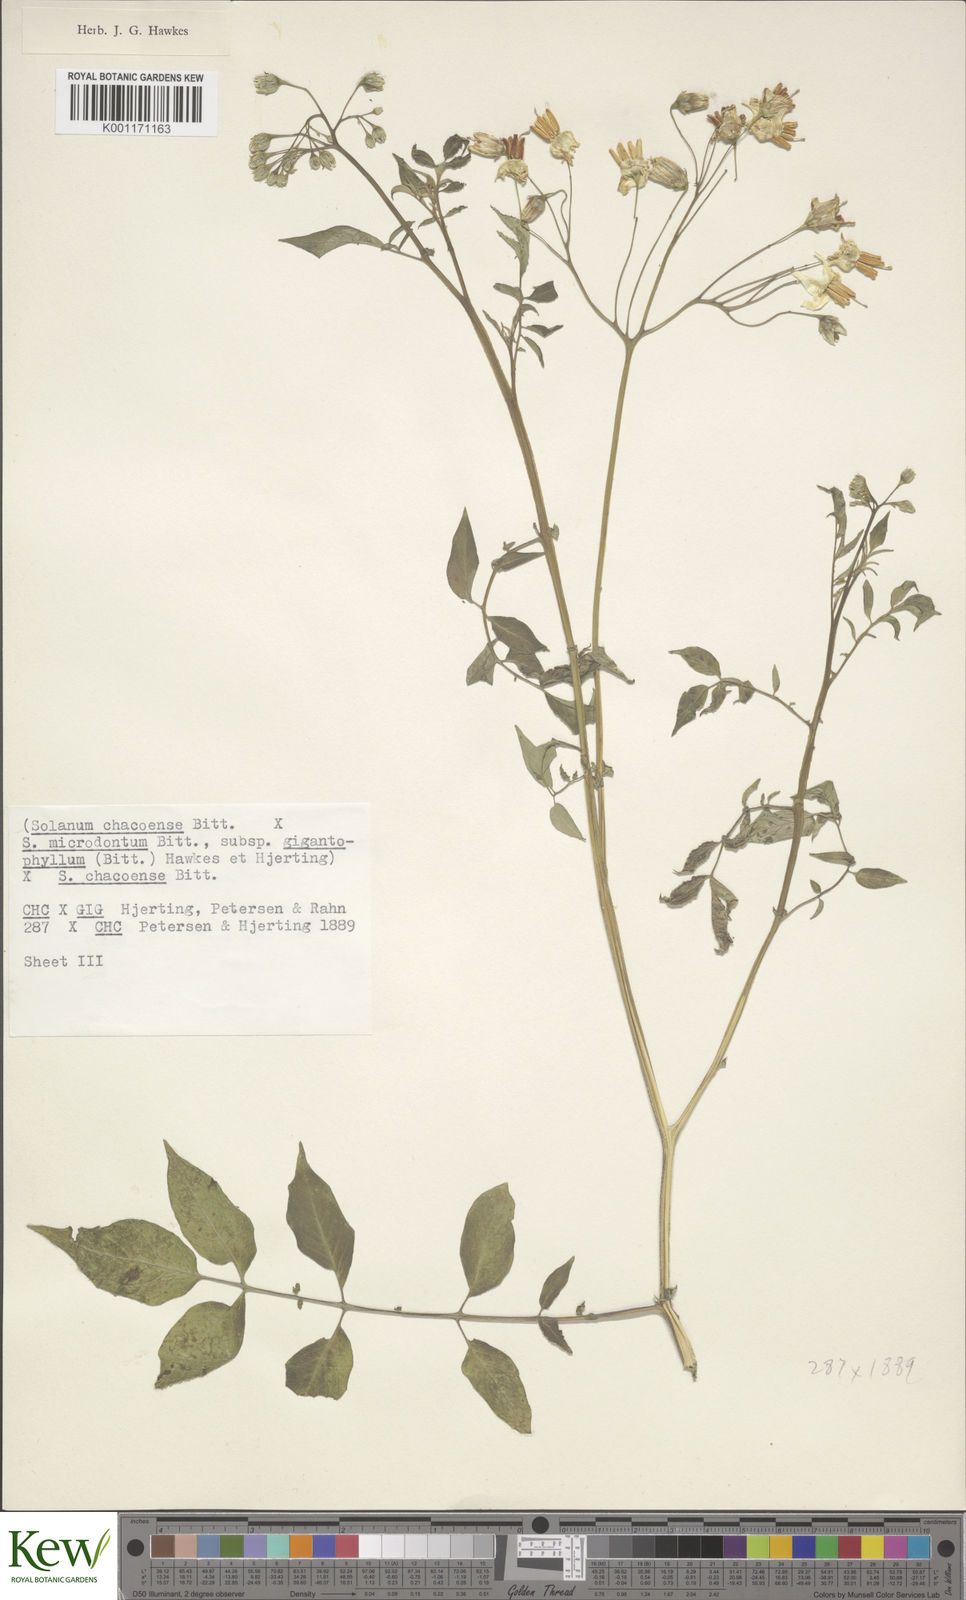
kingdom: Plantae
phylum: Tracheophyta
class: Magnoliopsida
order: Solanales
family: Solanaceae
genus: Solanum
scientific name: Solanum microdontum
